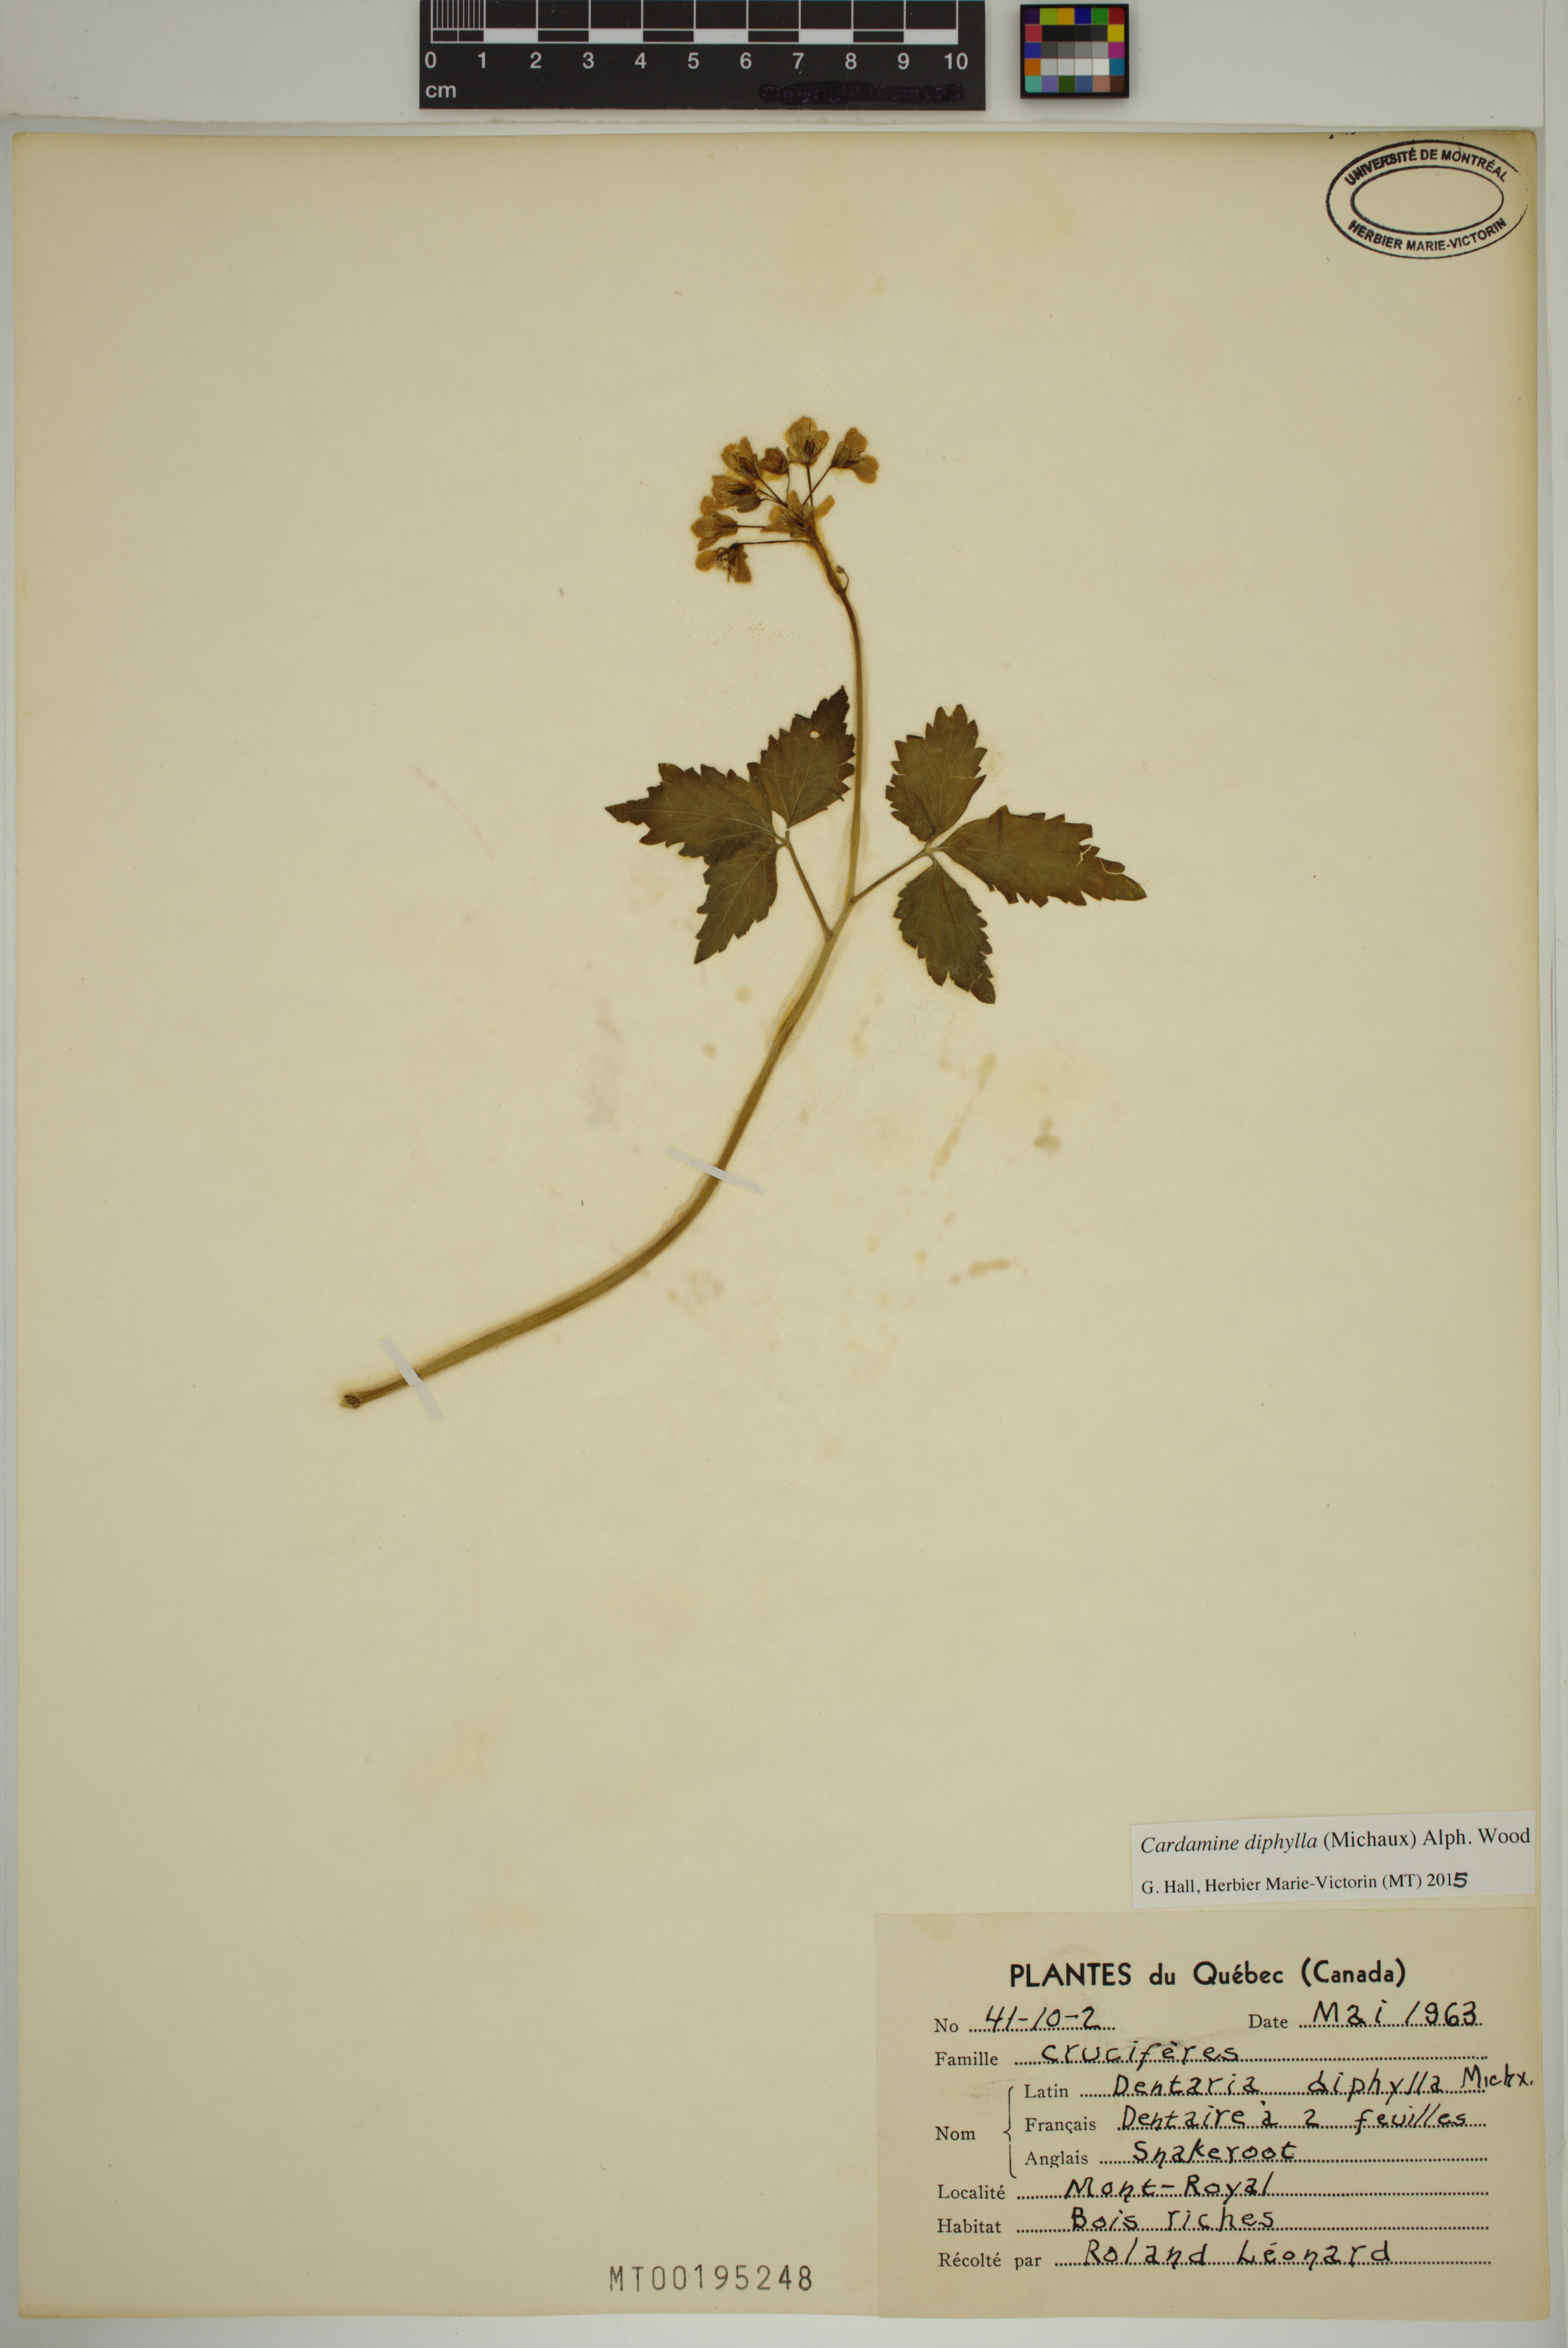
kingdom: Plantae
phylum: Tracheophyta
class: Magnoliopsida
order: Brassicales
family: Brassicaceae
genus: Cardamine
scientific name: Cardamine diphylla
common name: Broad-leaved toothwort
